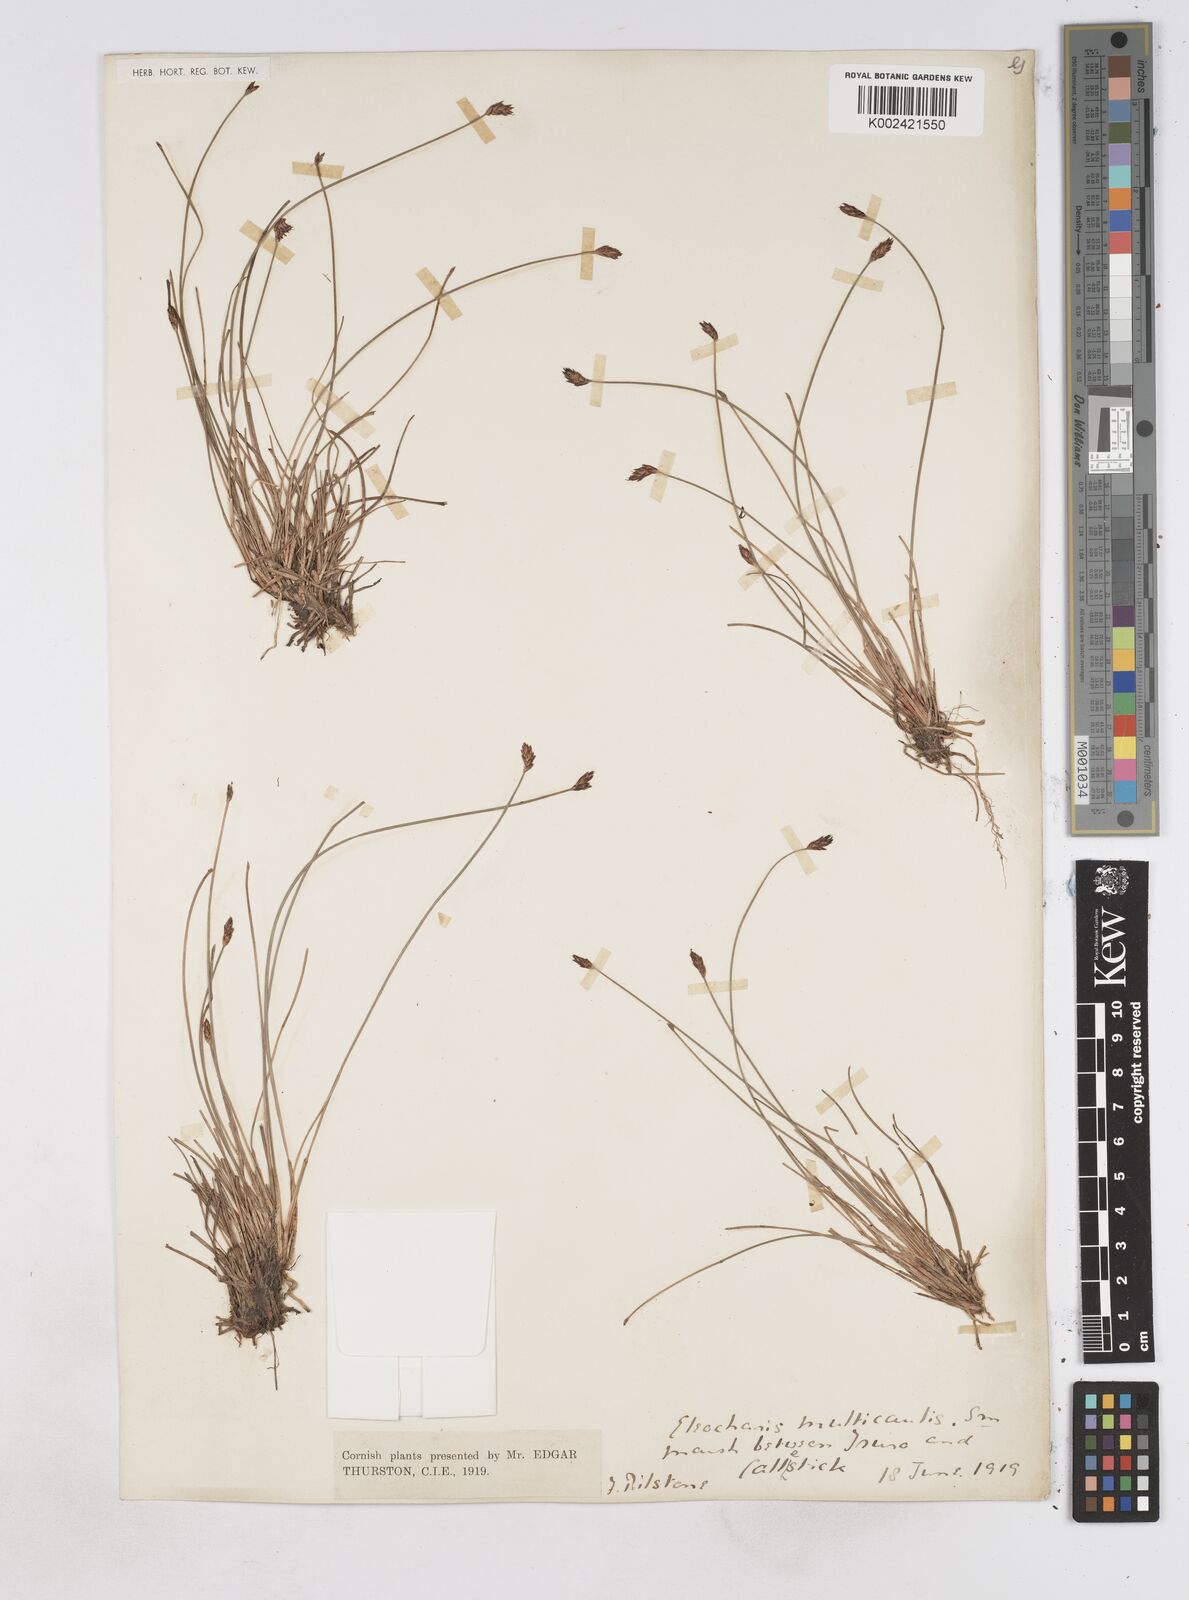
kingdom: Plantae
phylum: Tracheophyta
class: Liliopsida
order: Poales
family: Cyperaceae
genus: Eleocharis
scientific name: Eleocharis multicaulis
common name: Many-stalked spike-rush
